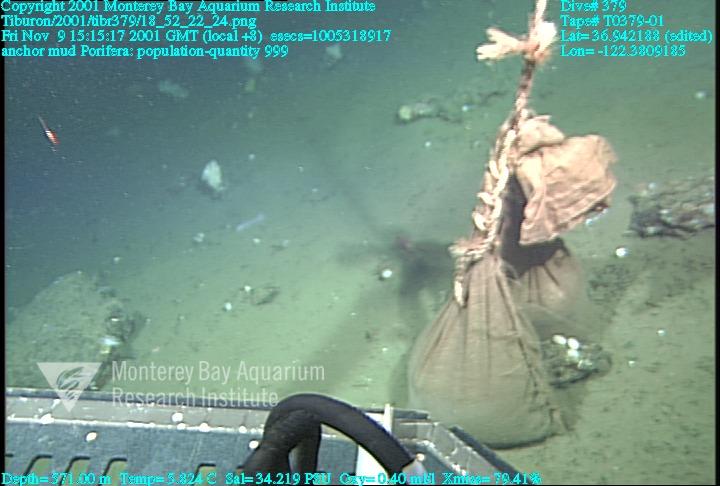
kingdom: Animalia
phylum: Porifera
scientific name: Porifera
